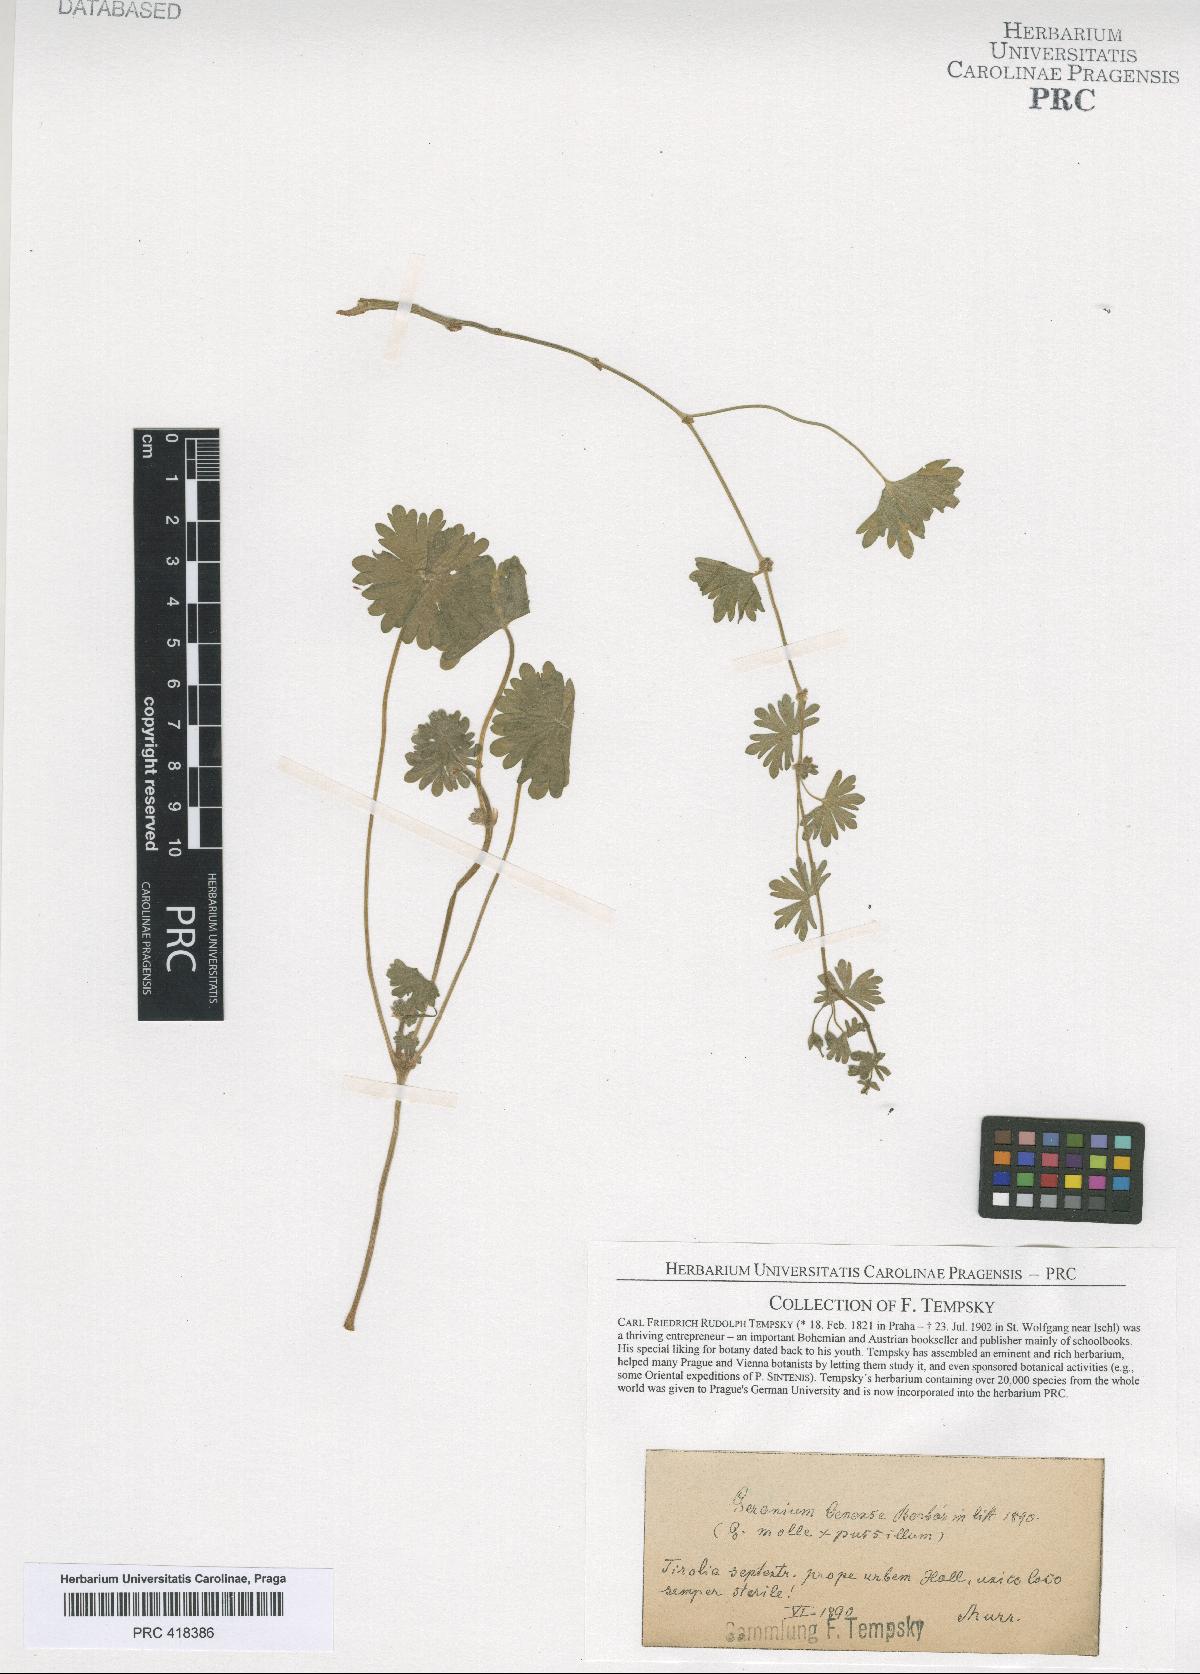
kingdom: Plantae
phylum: Tracheophyta
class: Magnoliopsida
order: Geraniales
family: Geraniaceae
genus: Geranium
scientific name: Geranium molle
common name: Dove's-foot crane's-bill
